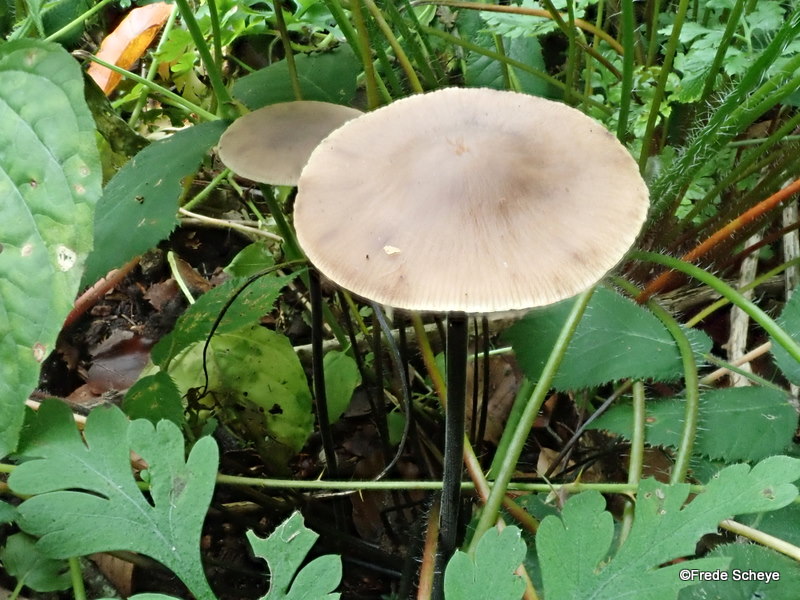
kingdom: Fungi
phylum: Basidiomycota
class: Agaricomycetes
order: Agaricales
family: Omphalotaceae
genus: Mycetinis
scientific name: Mycetinis alliaceus
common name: stor løghat
